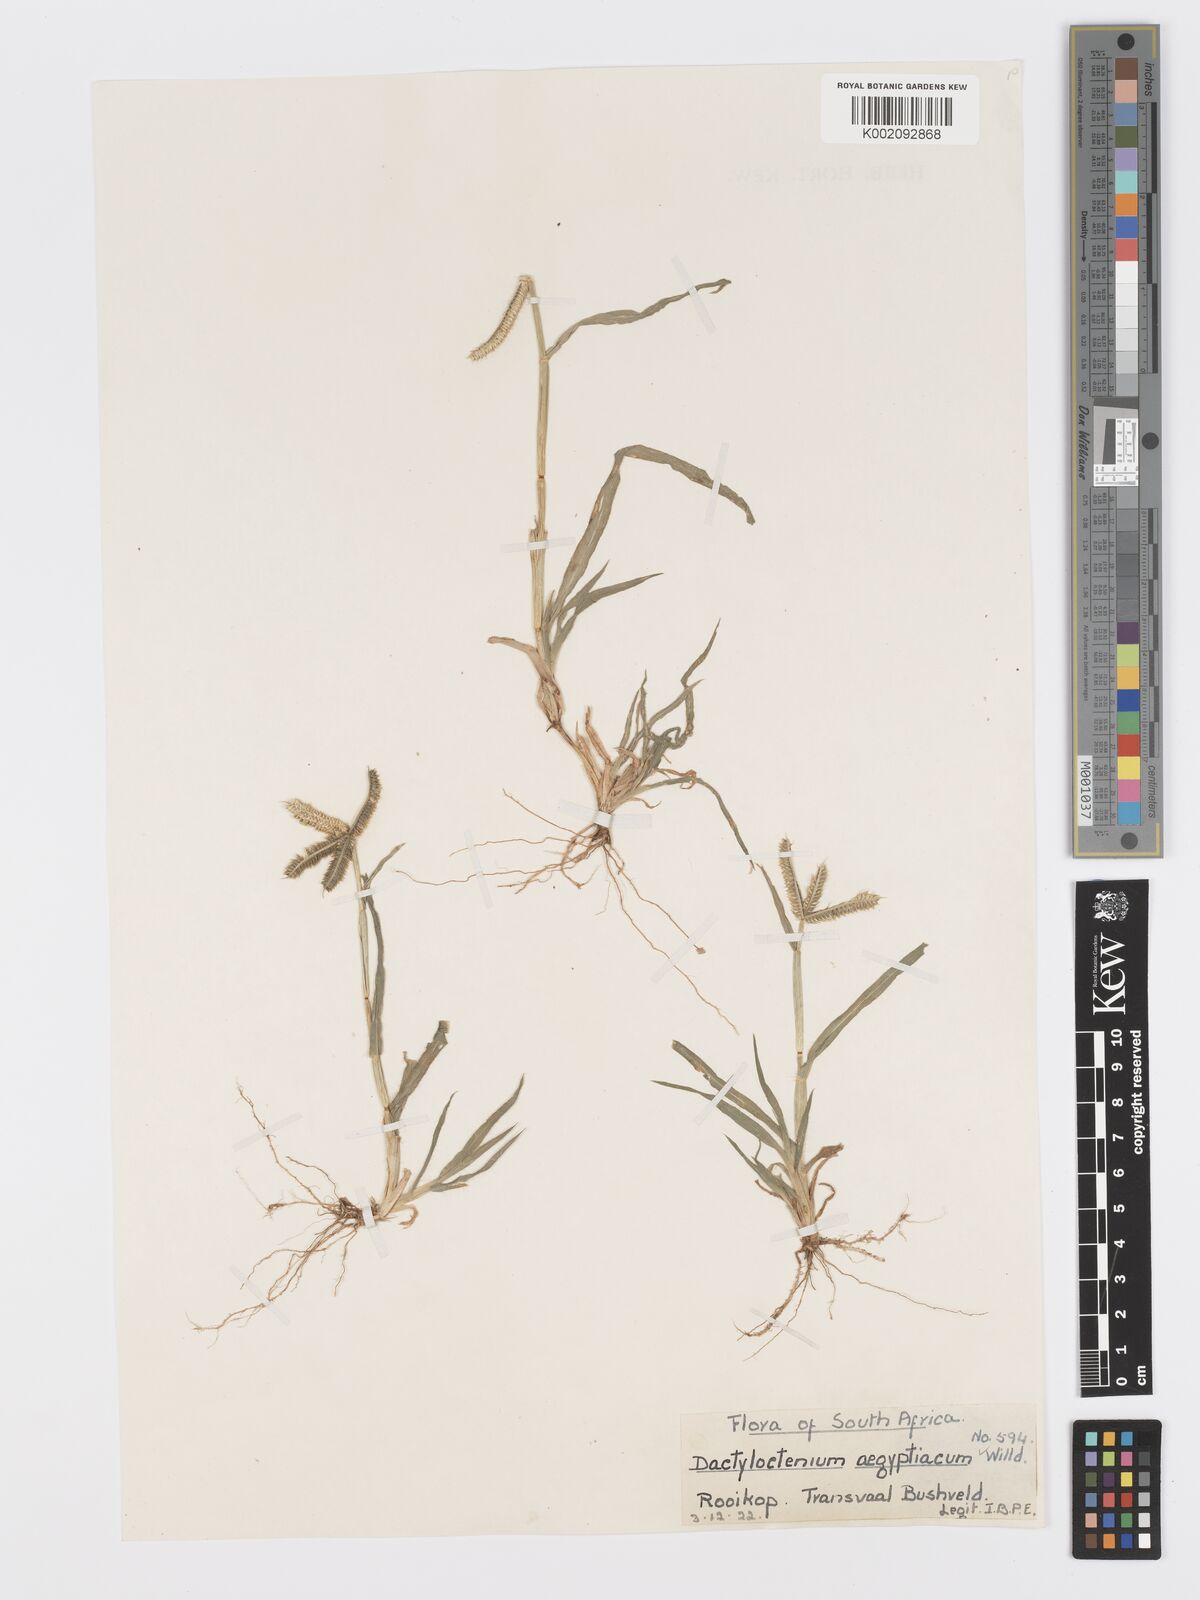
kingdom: Plantae
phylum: Tracheophyta
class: Liliopsida
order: Poales
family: Poaceae
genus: Dactyloctenium
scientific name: Dactyloctenium aegyptium
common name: Egyptian grass
